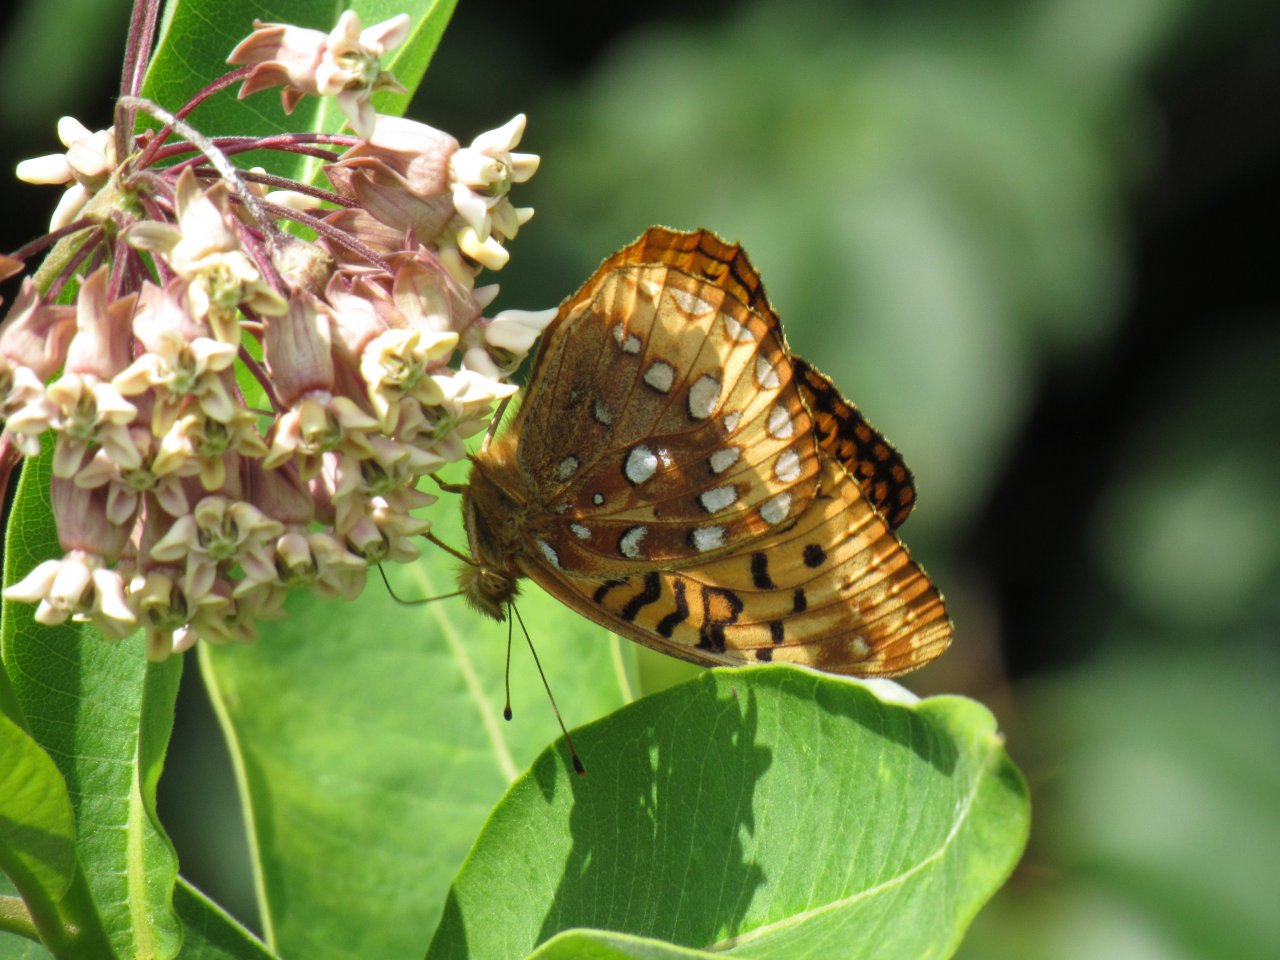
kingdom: Animalia
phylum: Arthropoda
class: Insecta
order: Lepidoptera
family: Nymphalidae
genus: Speyeria
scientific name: Speyeria cybele
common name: Great Spangled Fritillary
